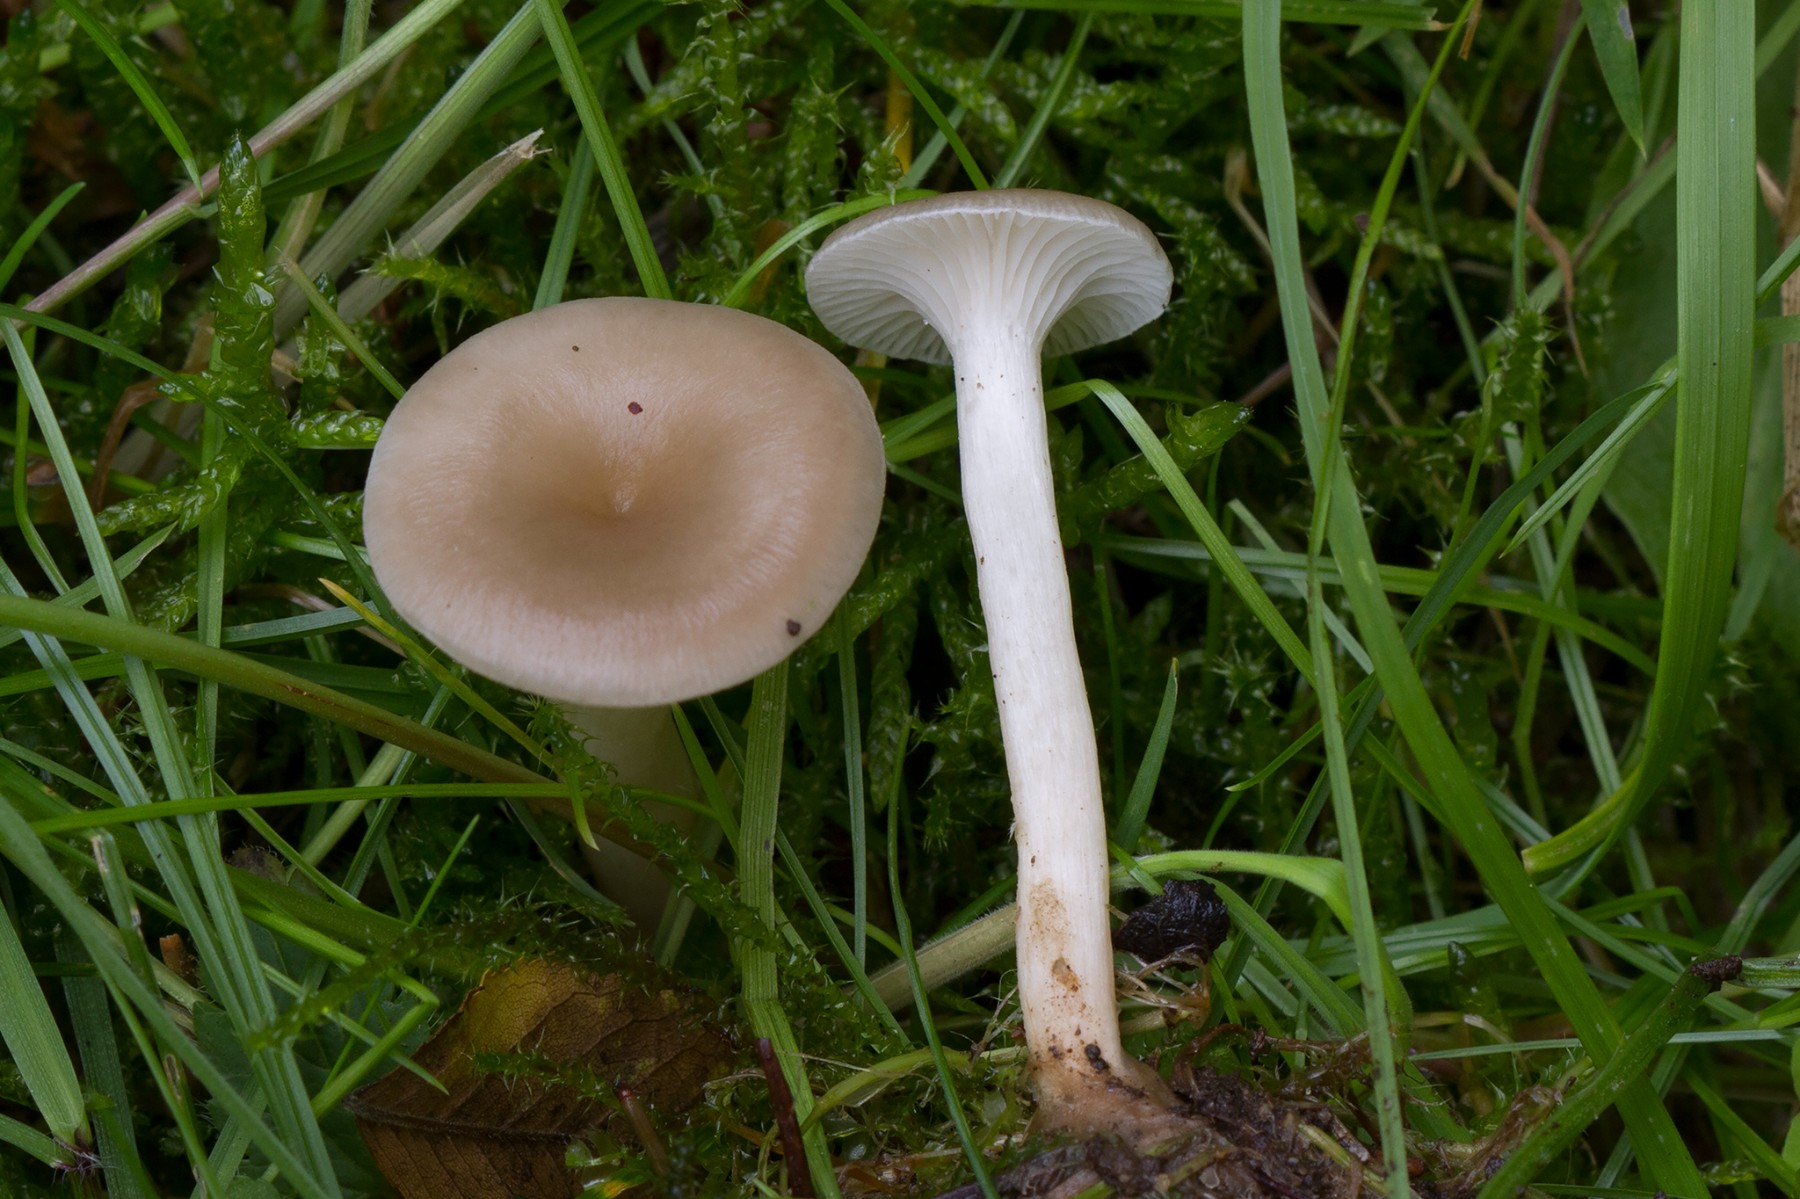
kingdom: Fungi
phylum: Basidiomycota
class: Agaricomycetes
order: Agaricales
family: Tricholomataceae
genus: Clitocybe
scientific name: Clitocybe phaeophthalma
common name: stinkende tragthat
